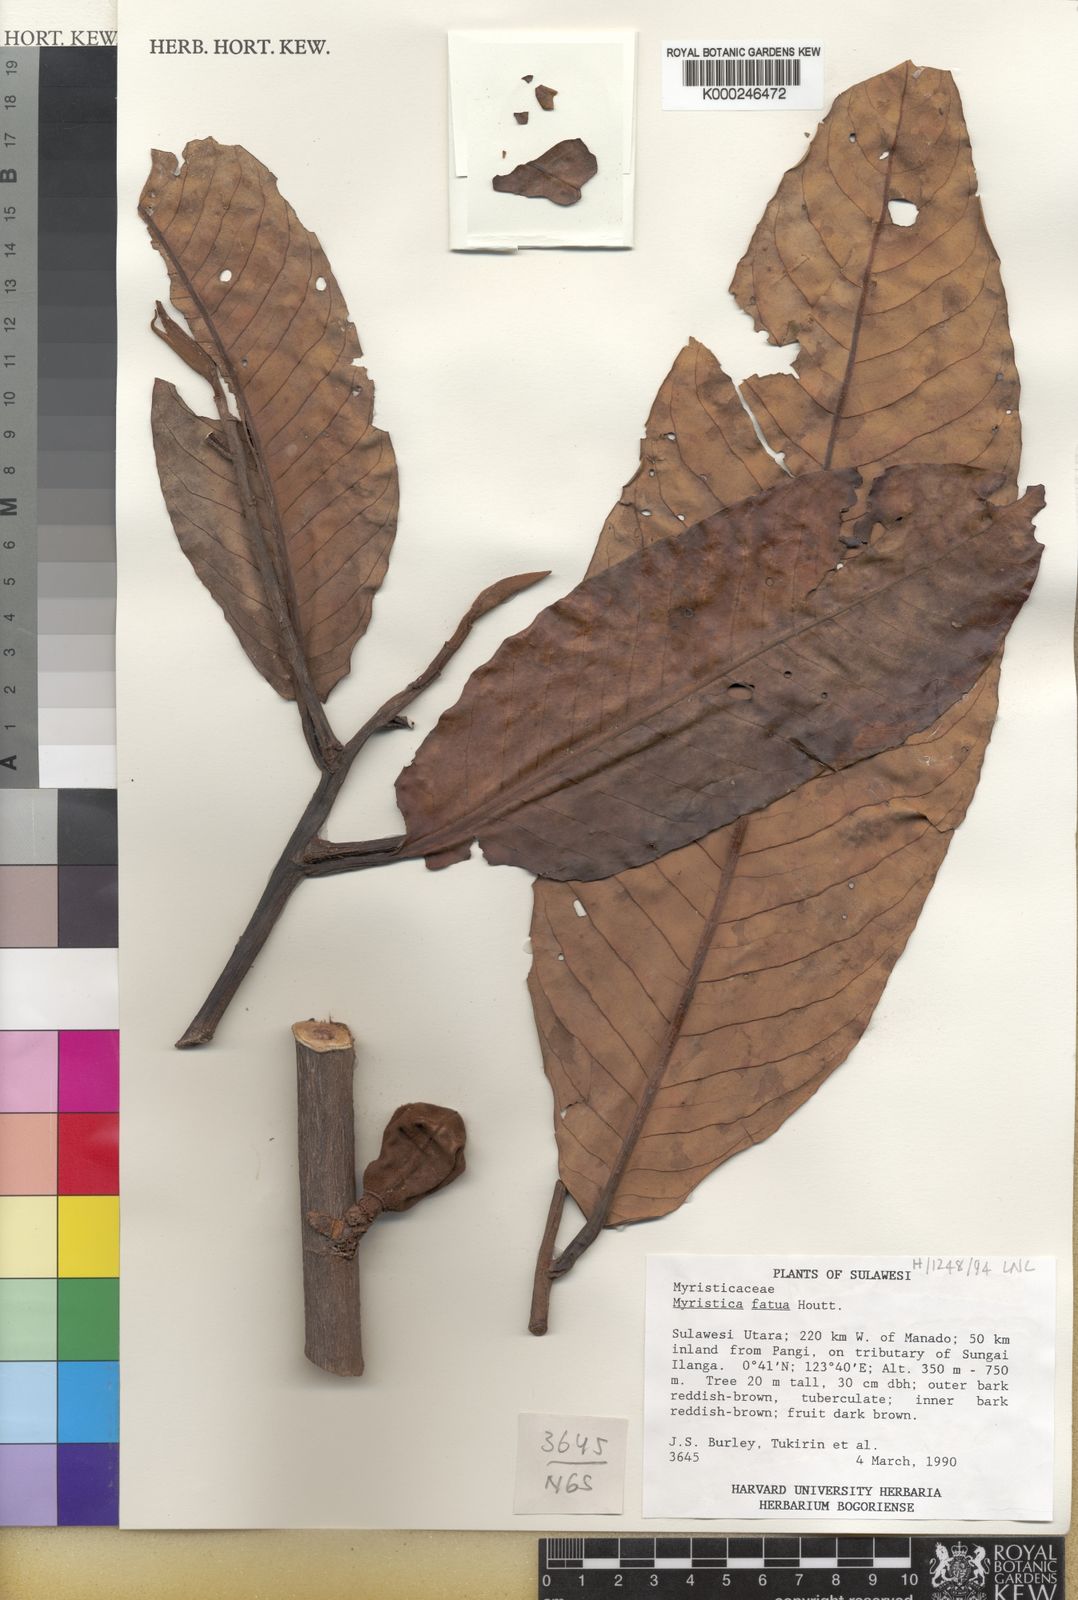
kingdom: Plantae
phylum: Tracheophyta
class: Magnoliopsida
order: Magnoliales
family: Myristicaceae
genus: Myristica
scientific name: Myristica fatua
